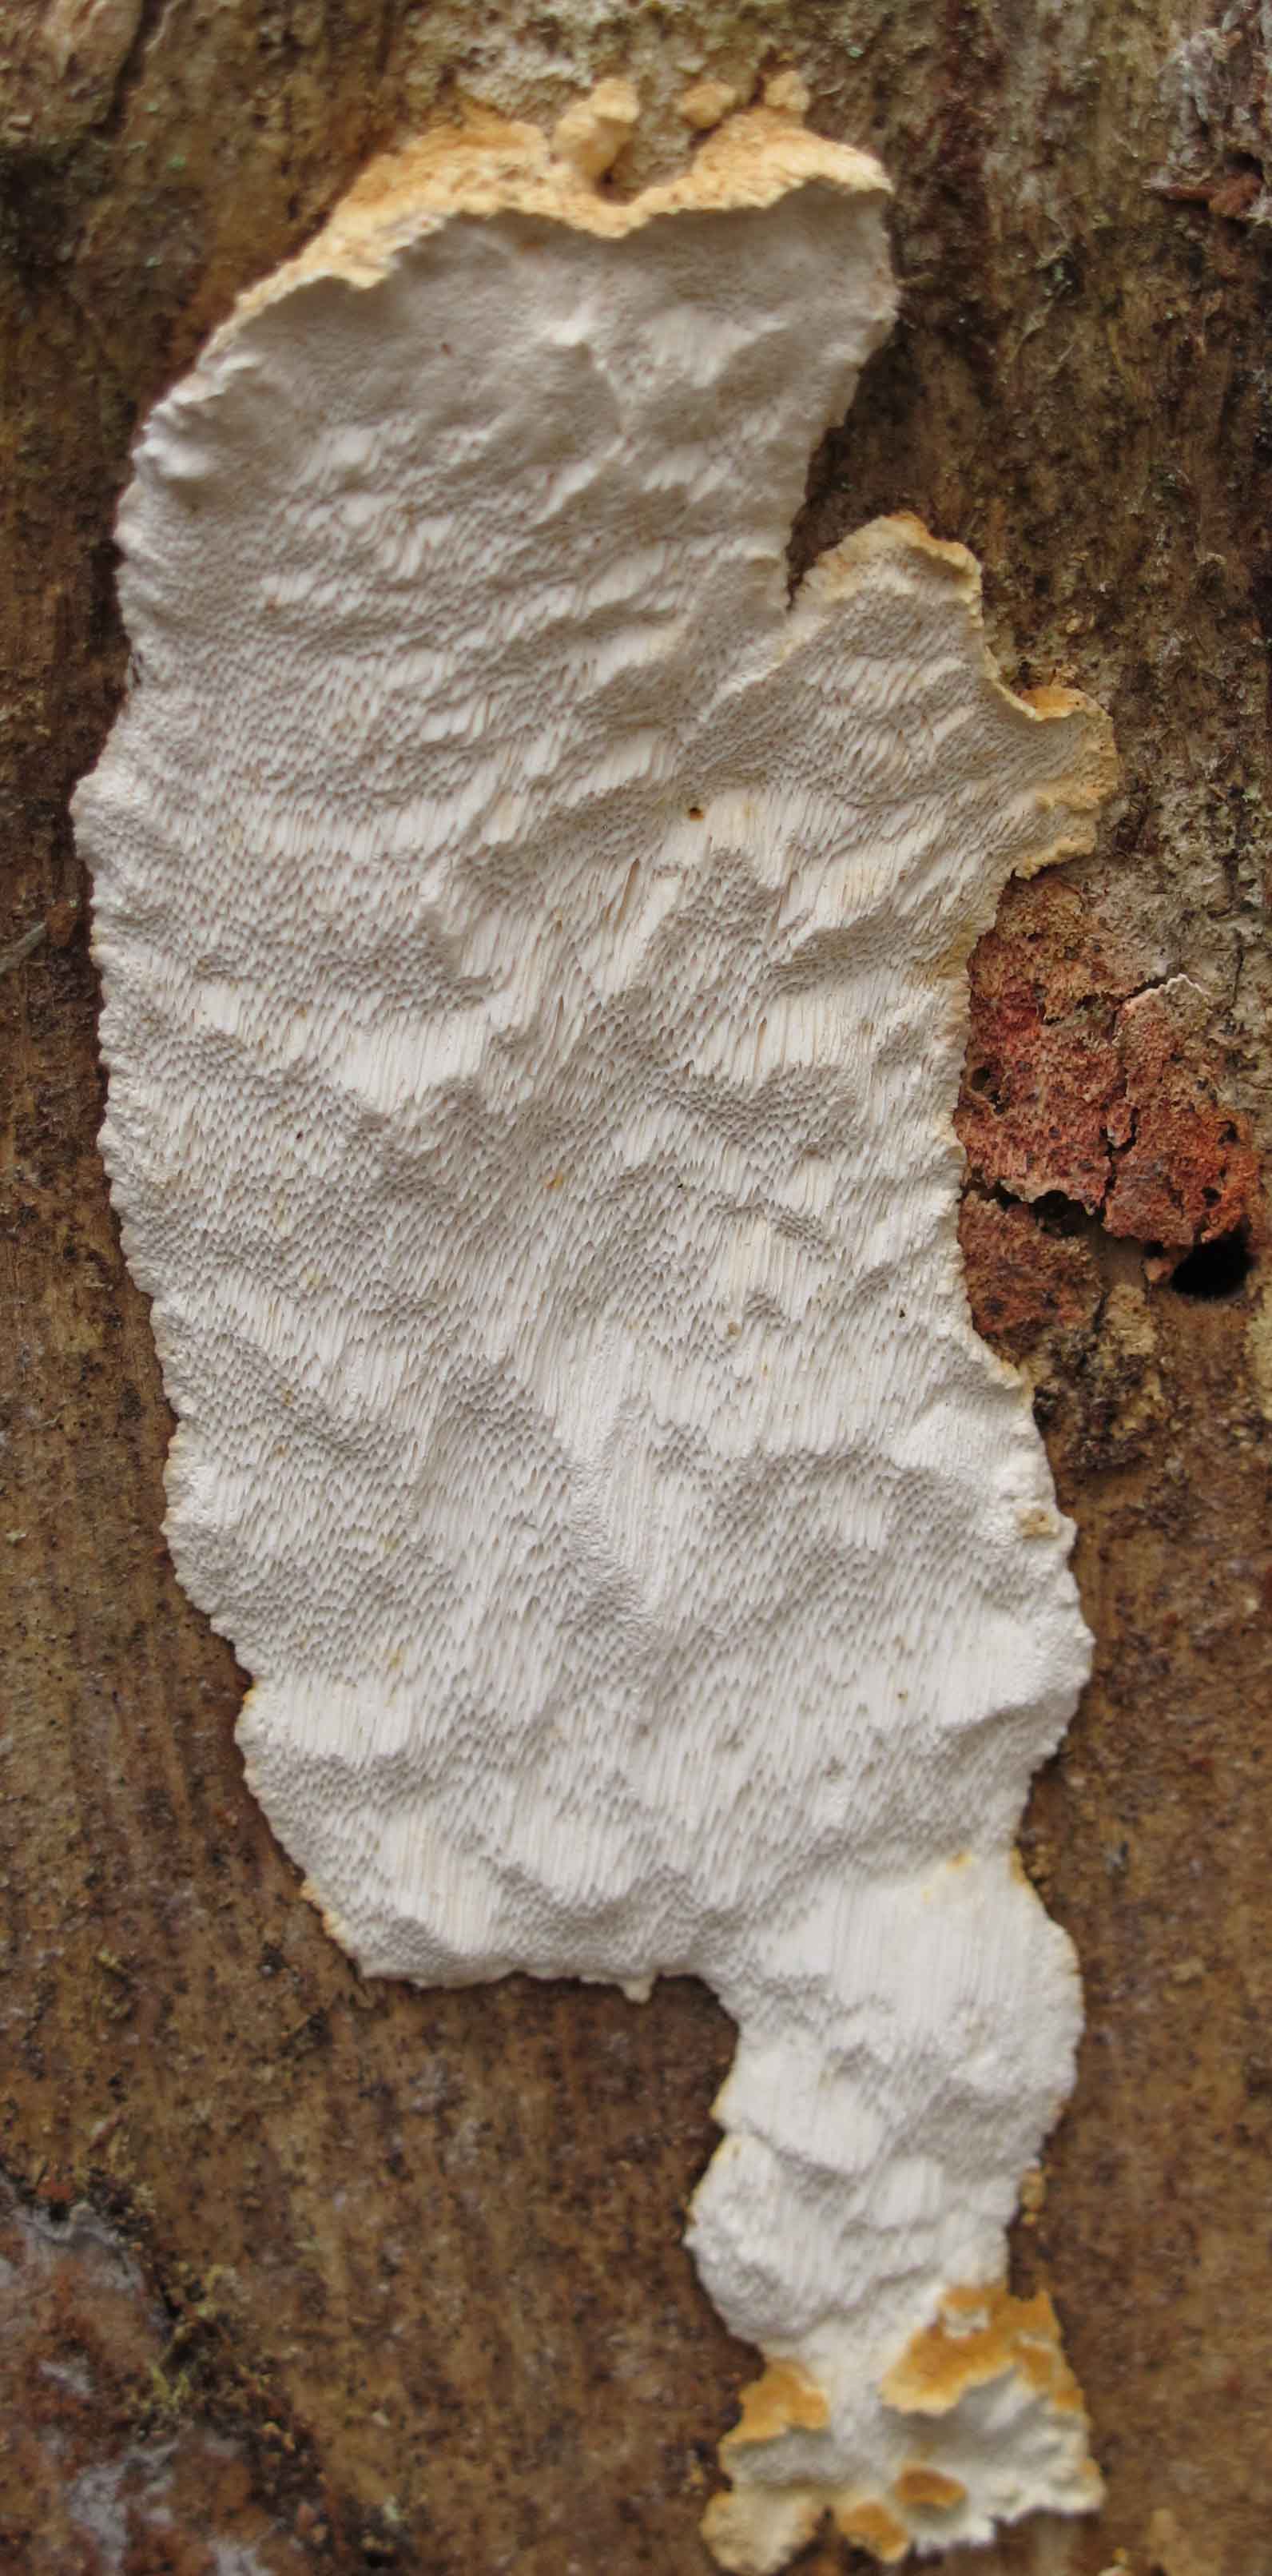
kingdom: Fungi
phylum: Basidiomycota
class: Agaricomycetes
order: Polyporales
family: Fomitopsidaceae
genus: Neoantrodia
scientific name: Neoantrodia serialis
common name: række-sejporesvamp
